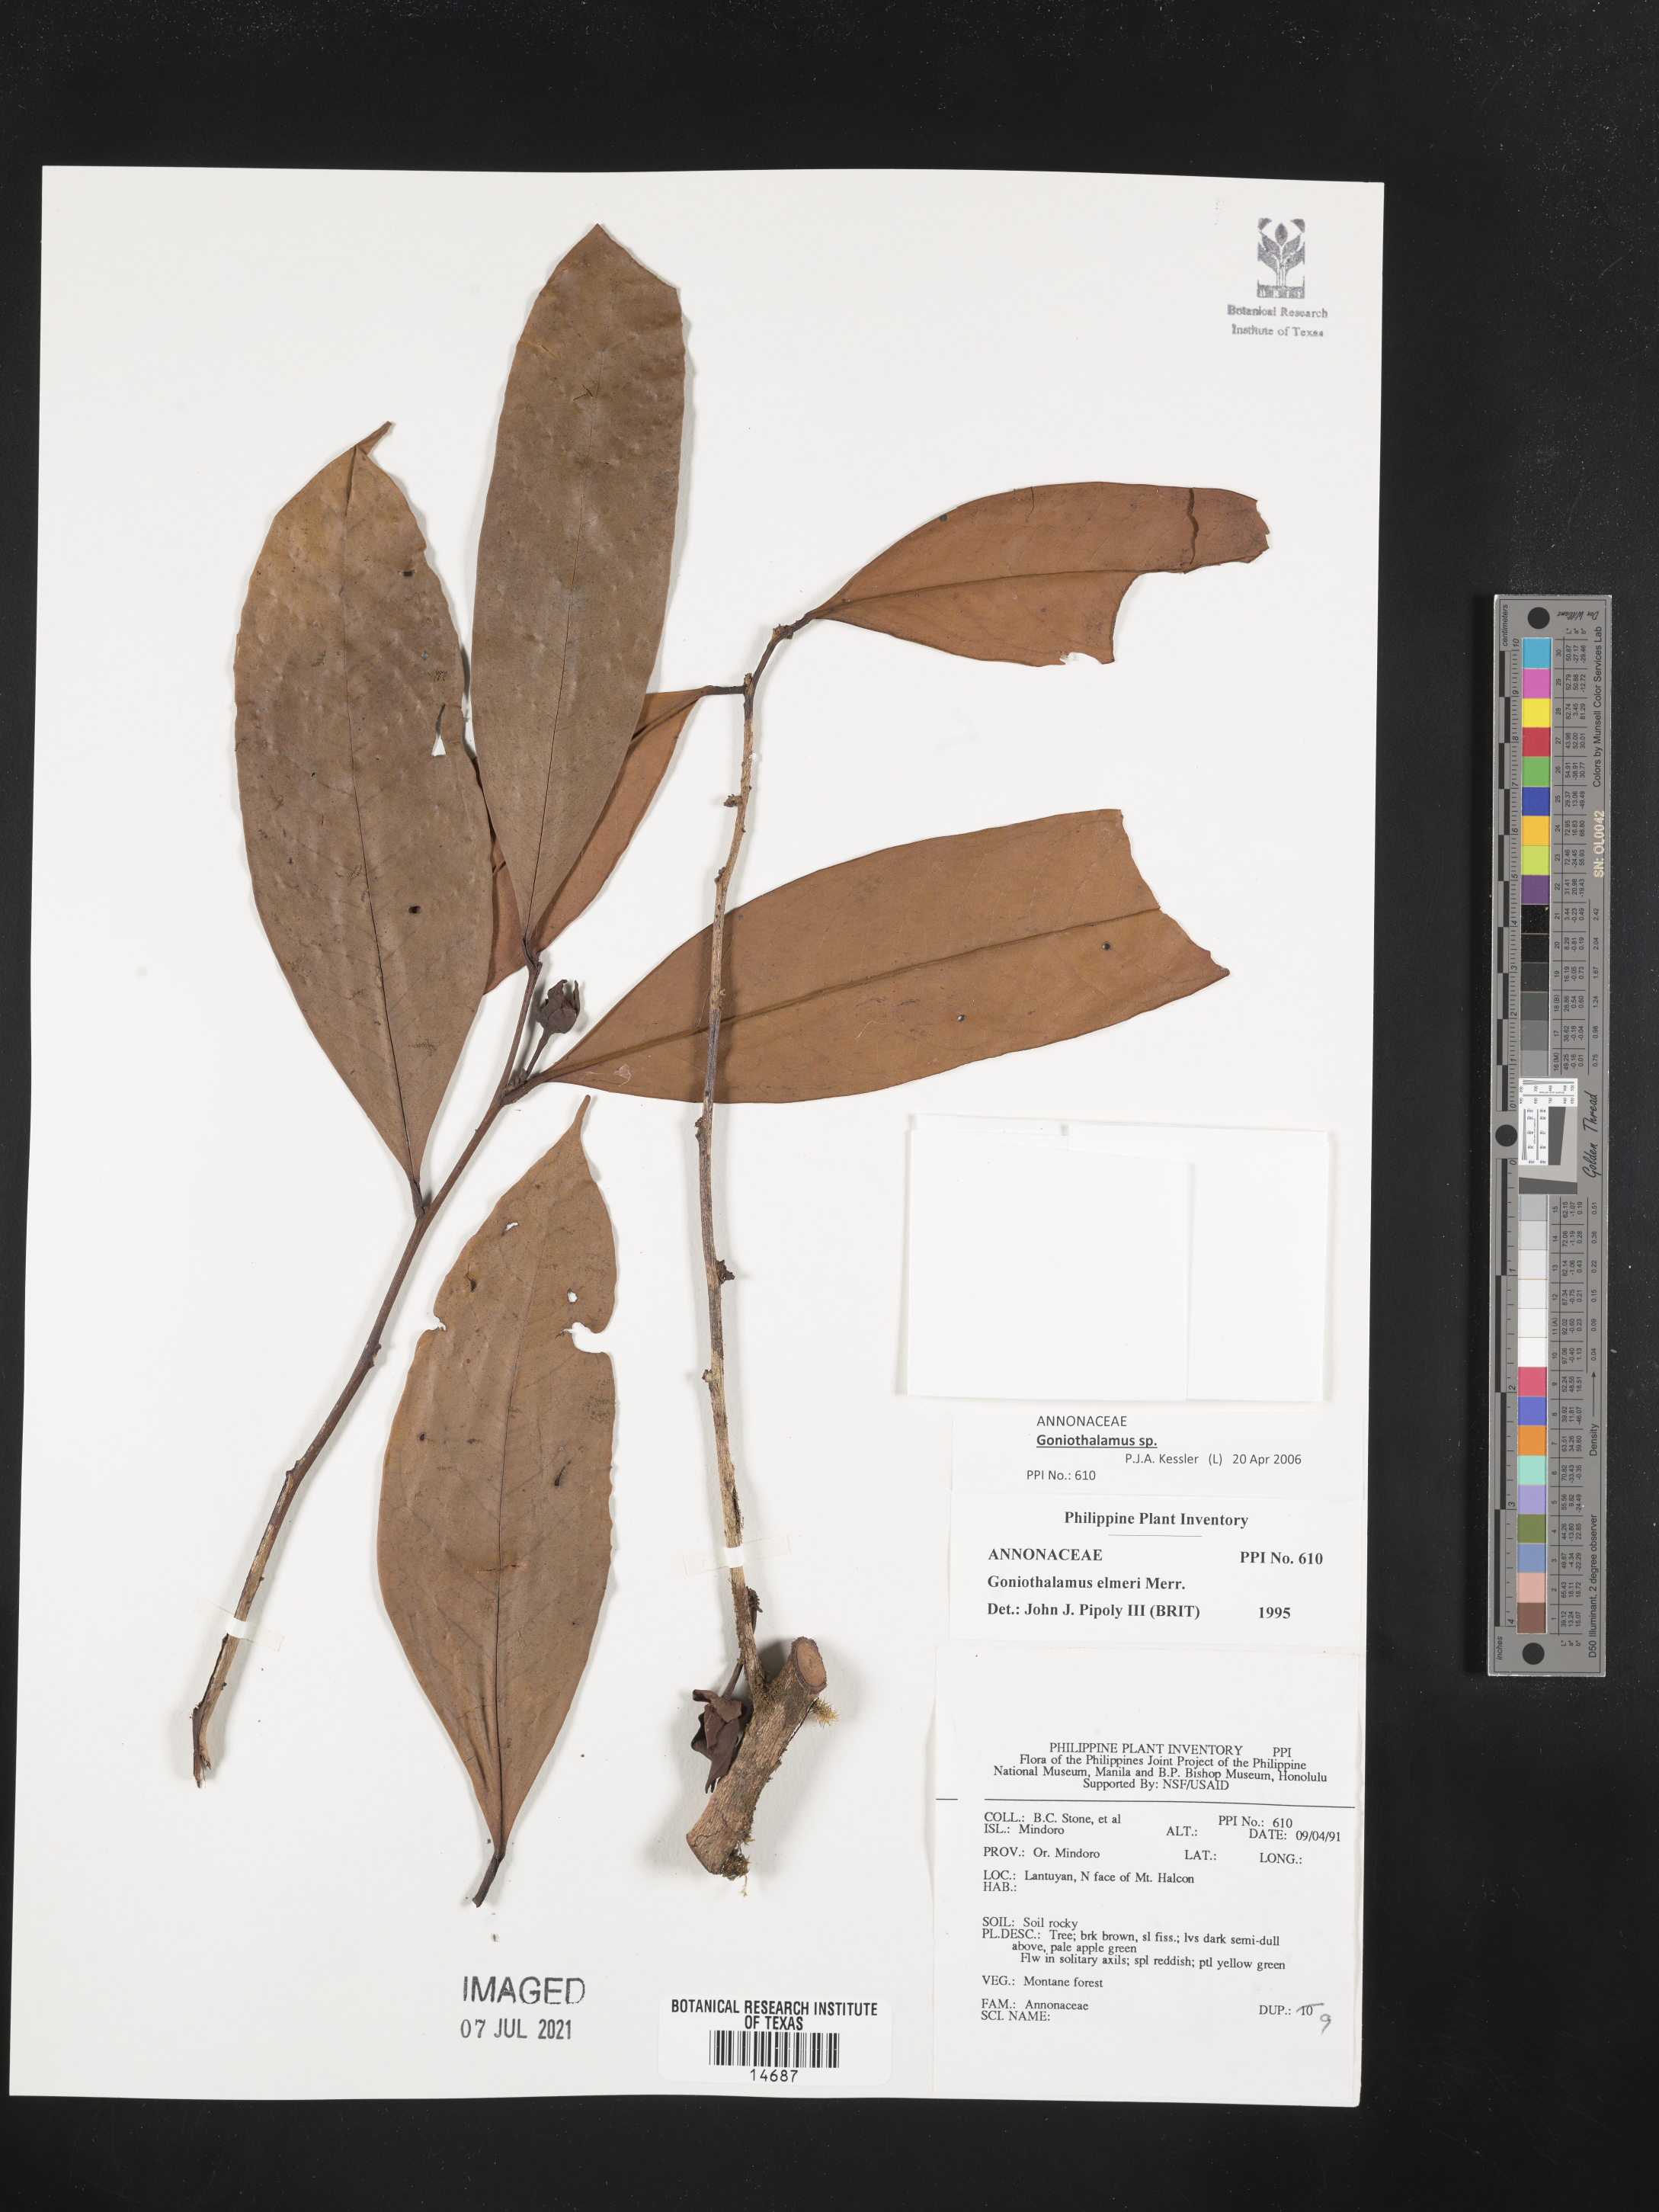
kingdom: Plantae
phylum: Tracheophyta
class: Magnoliopsida
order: Magnoliales
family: Annonaceae
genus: Goniothalamus
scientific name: Goniothalamus elmeri
